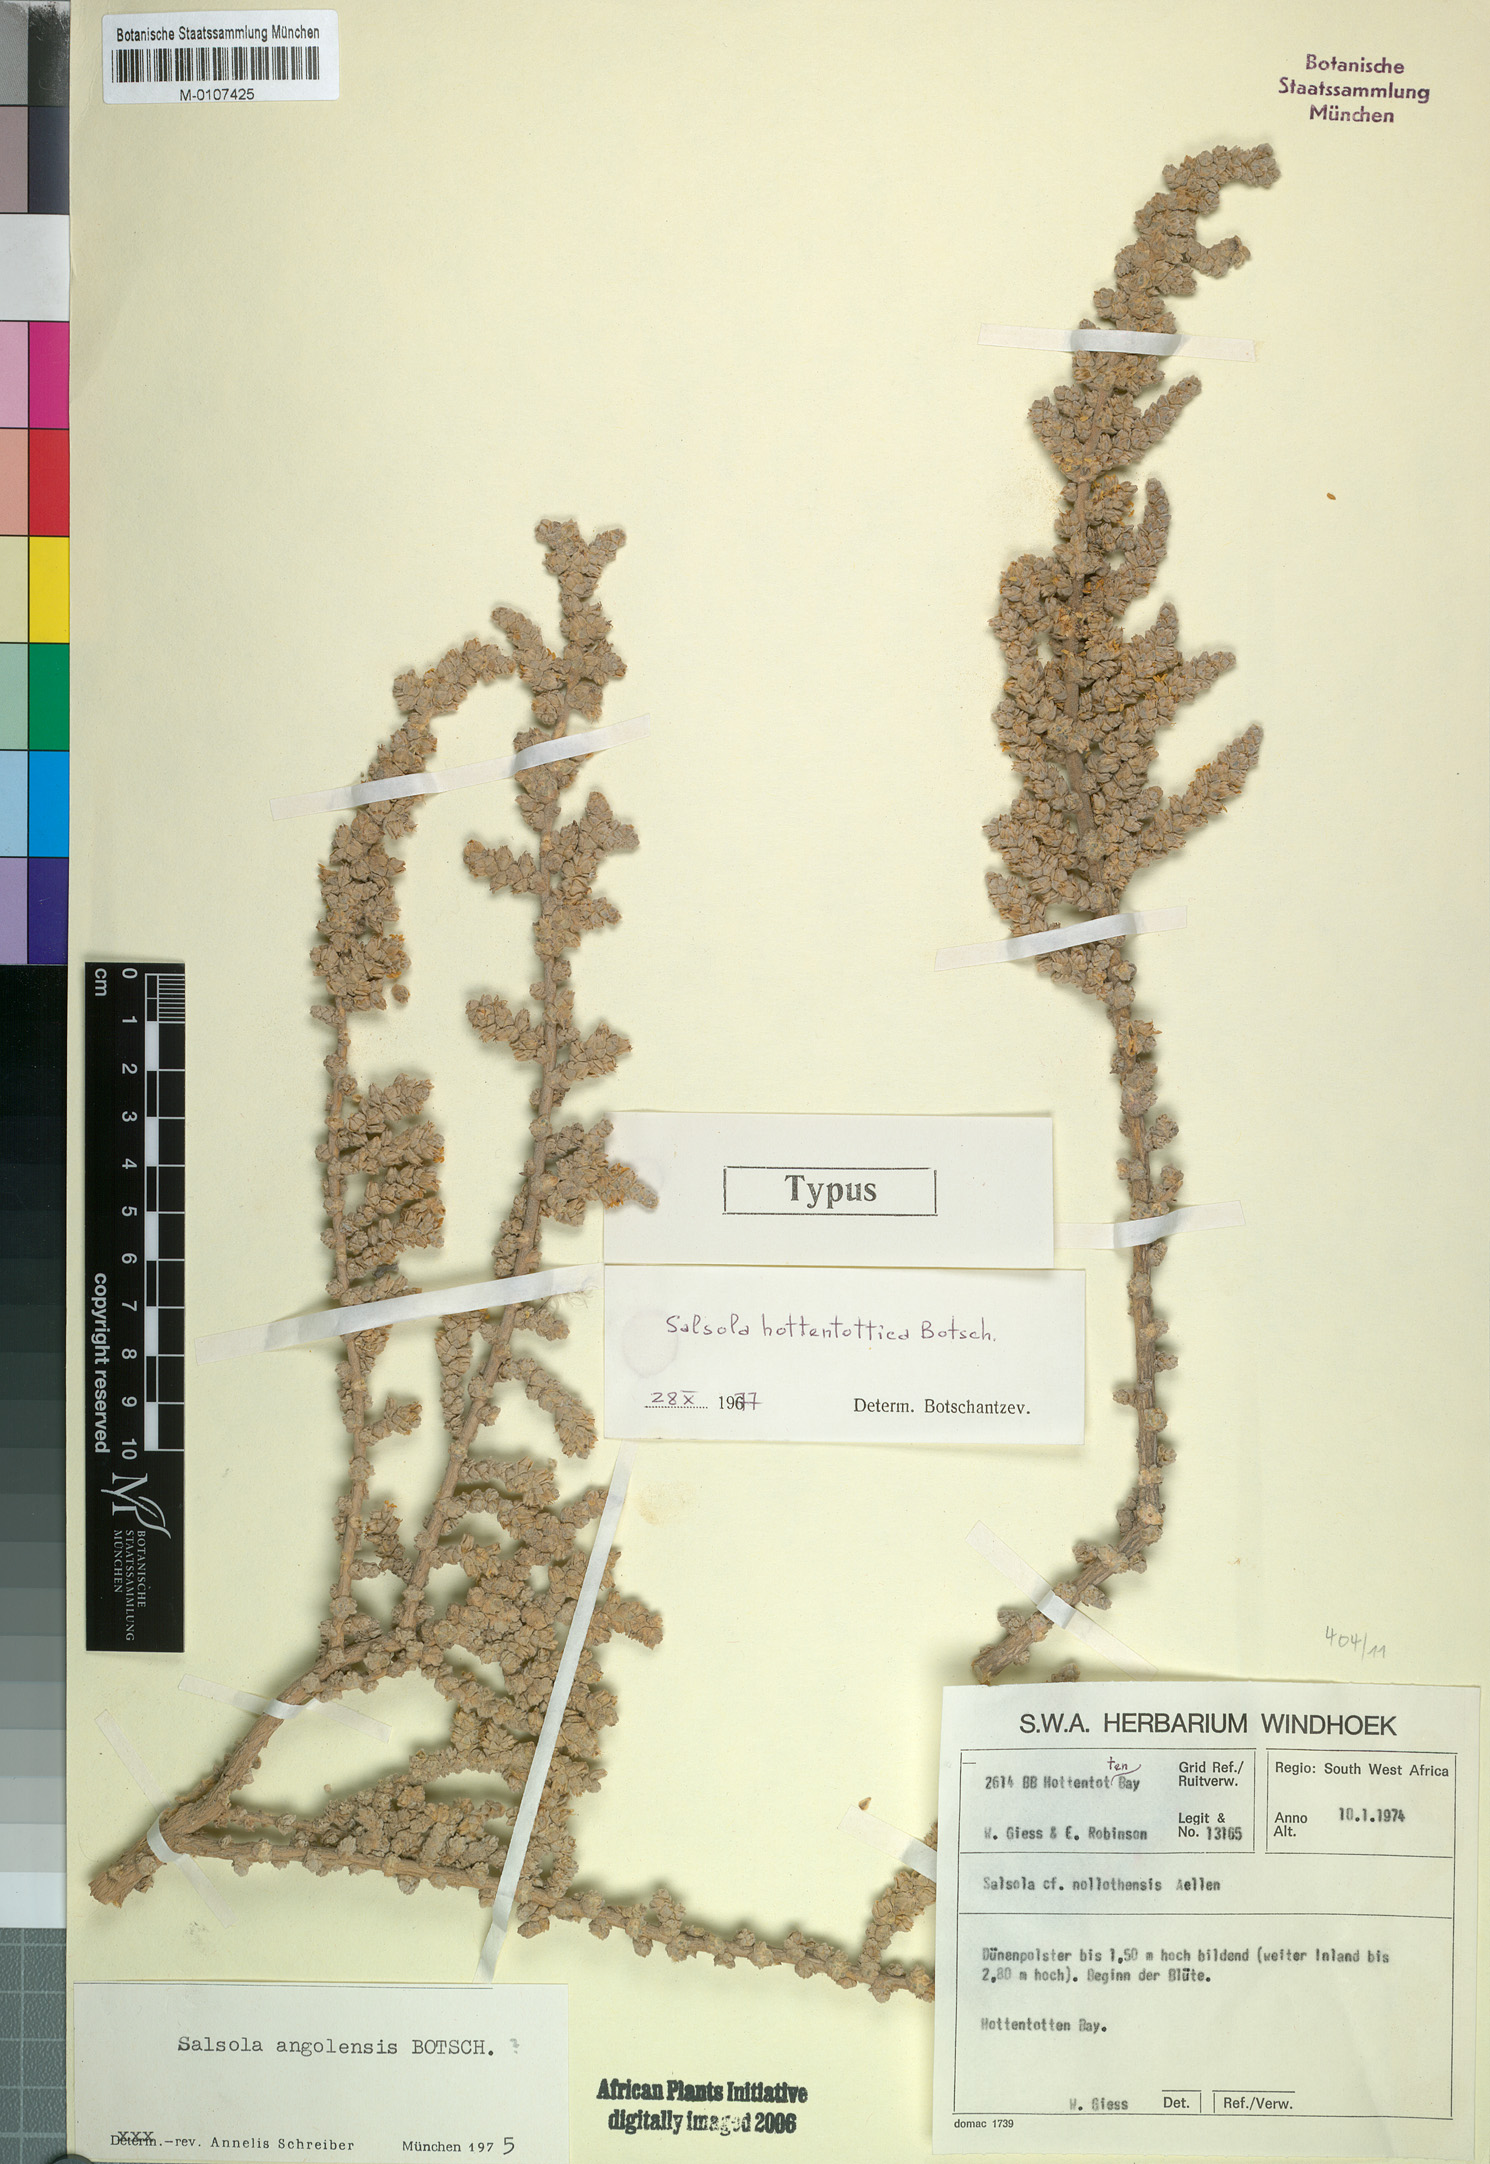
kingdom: Plantae
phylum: Tracheophyta
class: Magnoliopsida
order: Caryophyllales
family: Amaranthaceae
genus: Caroxylon
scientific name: Caroxylon hottentotticum
